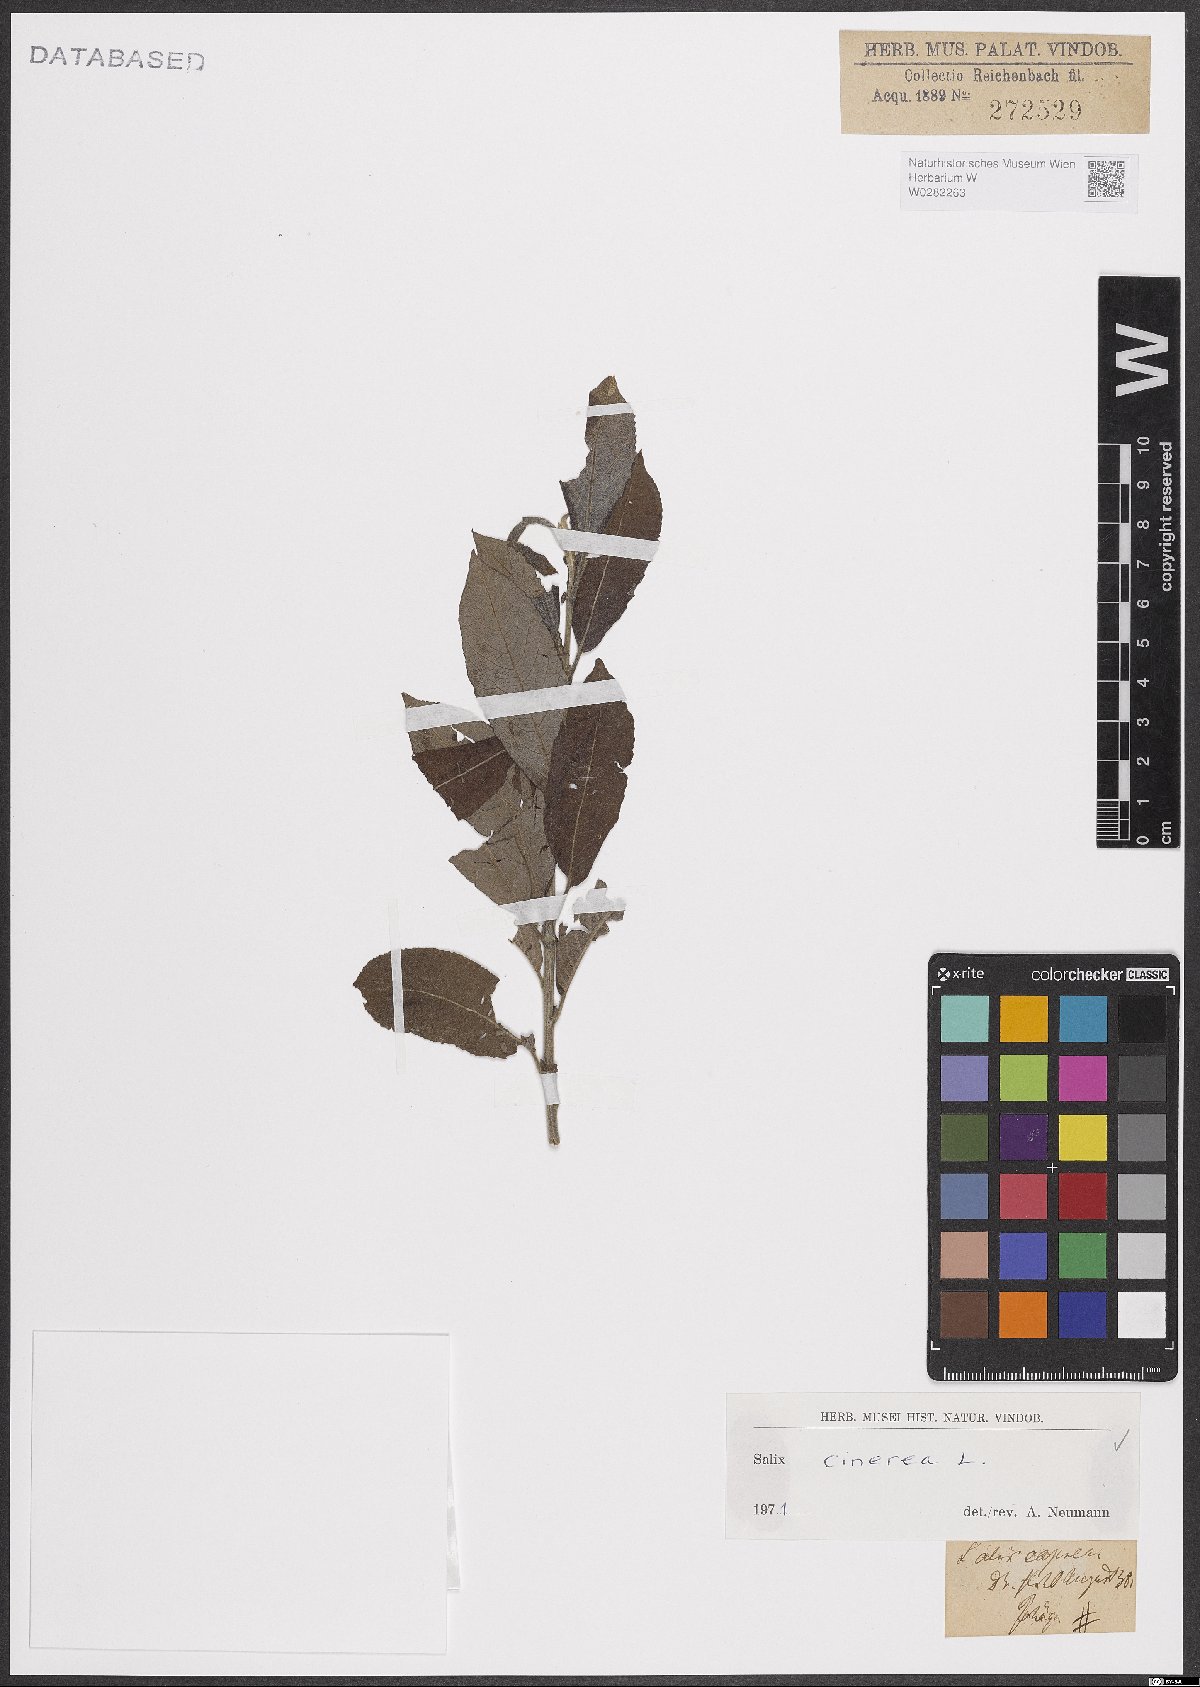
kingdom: Plantae
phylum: Tracheophyta
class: Magnoliopsida
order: Malpighiales
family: Salicaceae
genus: Salix
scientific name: Salix cinerea
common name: Common sallow
